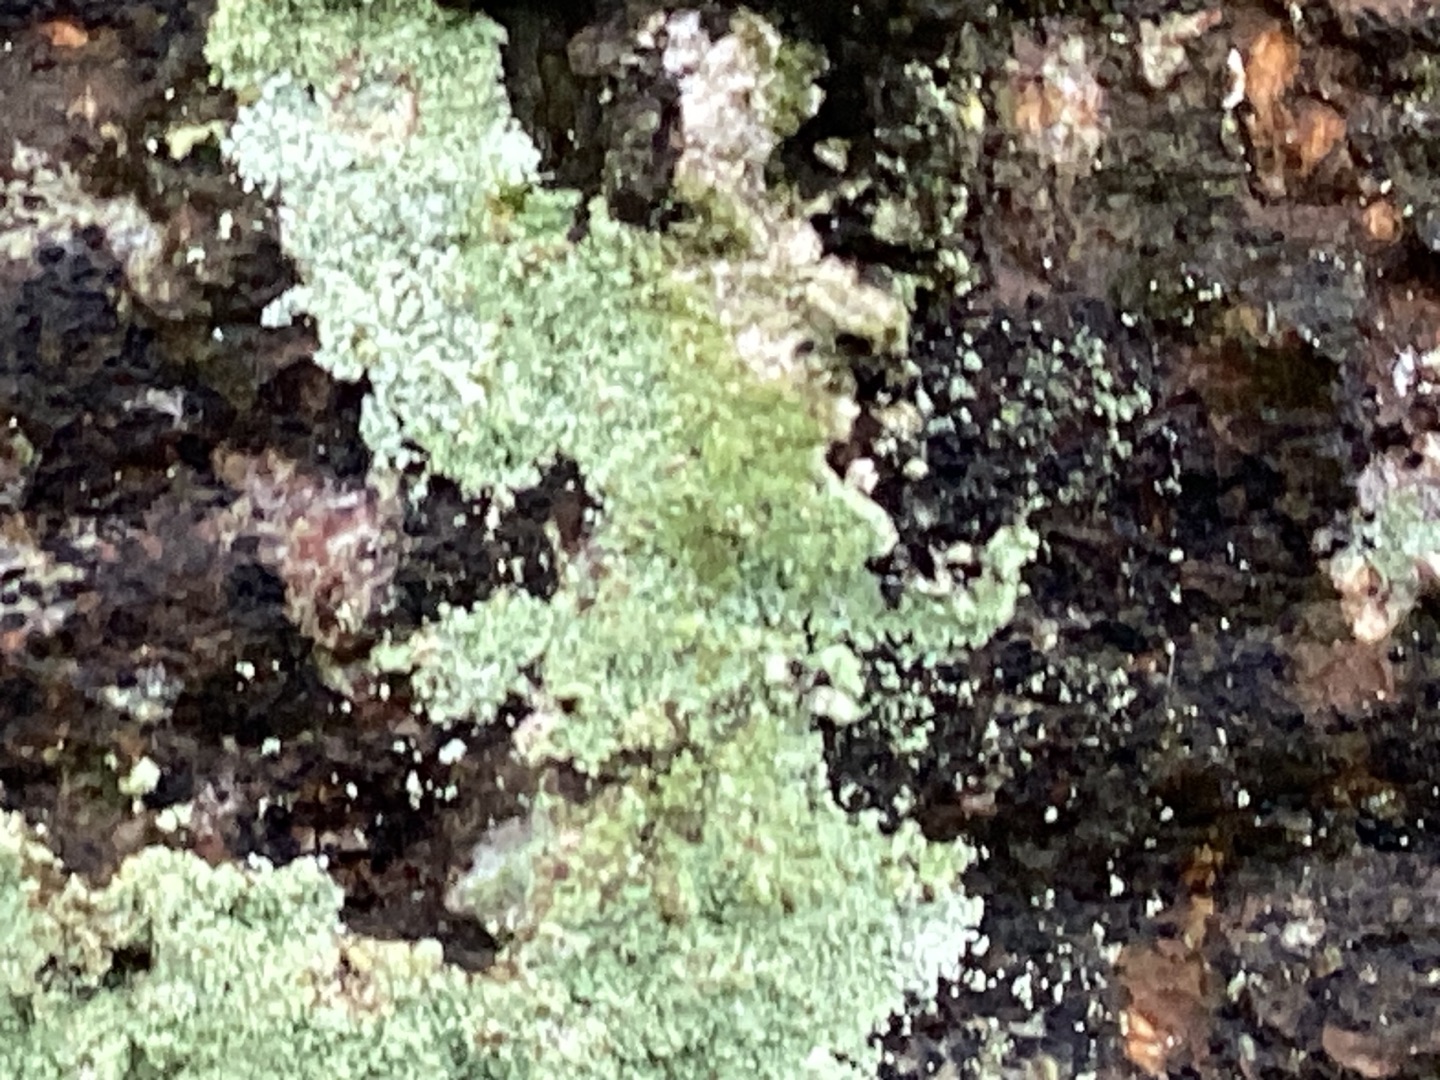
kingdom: Fungi
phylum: Ascomycota
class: Lecanoromycetes
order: Lecanorales
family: Stereocaulaceae
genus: Lepraria
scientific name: Lepraria
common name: Støvlav
